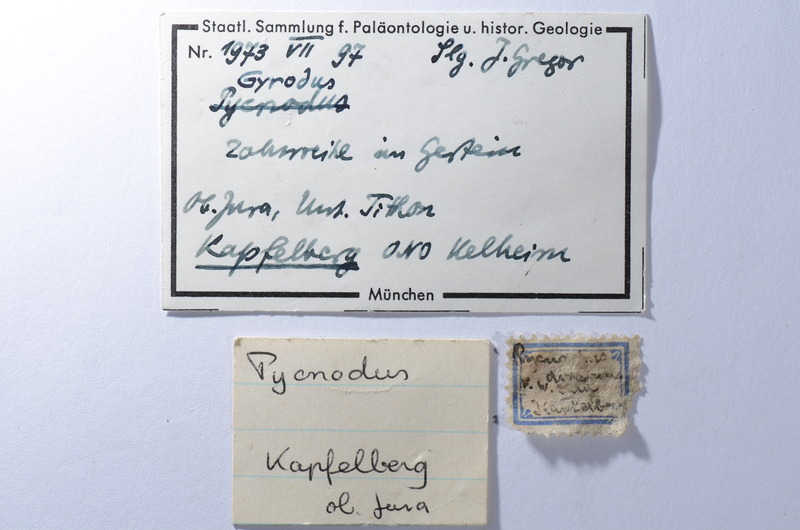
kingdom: Animalia
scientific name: Animalia
